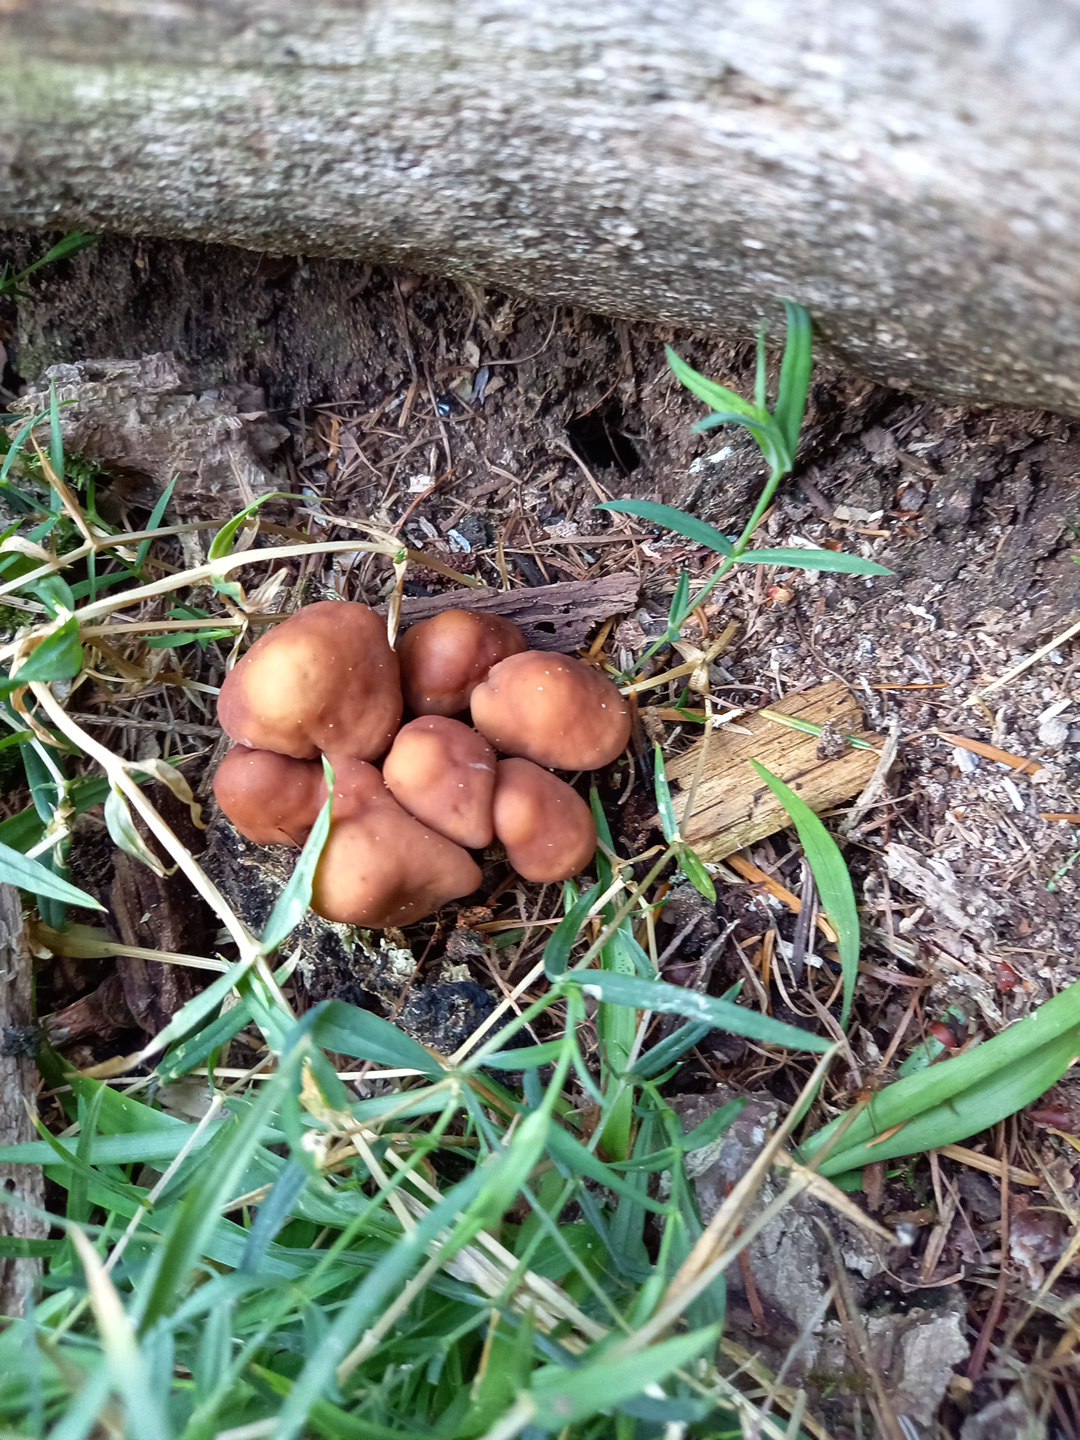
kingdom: Fungi
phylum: Basidiomycota
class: Agaricomycetes
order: Agaricales
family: Omphalotaceae
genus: Gymnopus
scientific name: Gymnopus fusipes
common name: tenstokket fladhat
